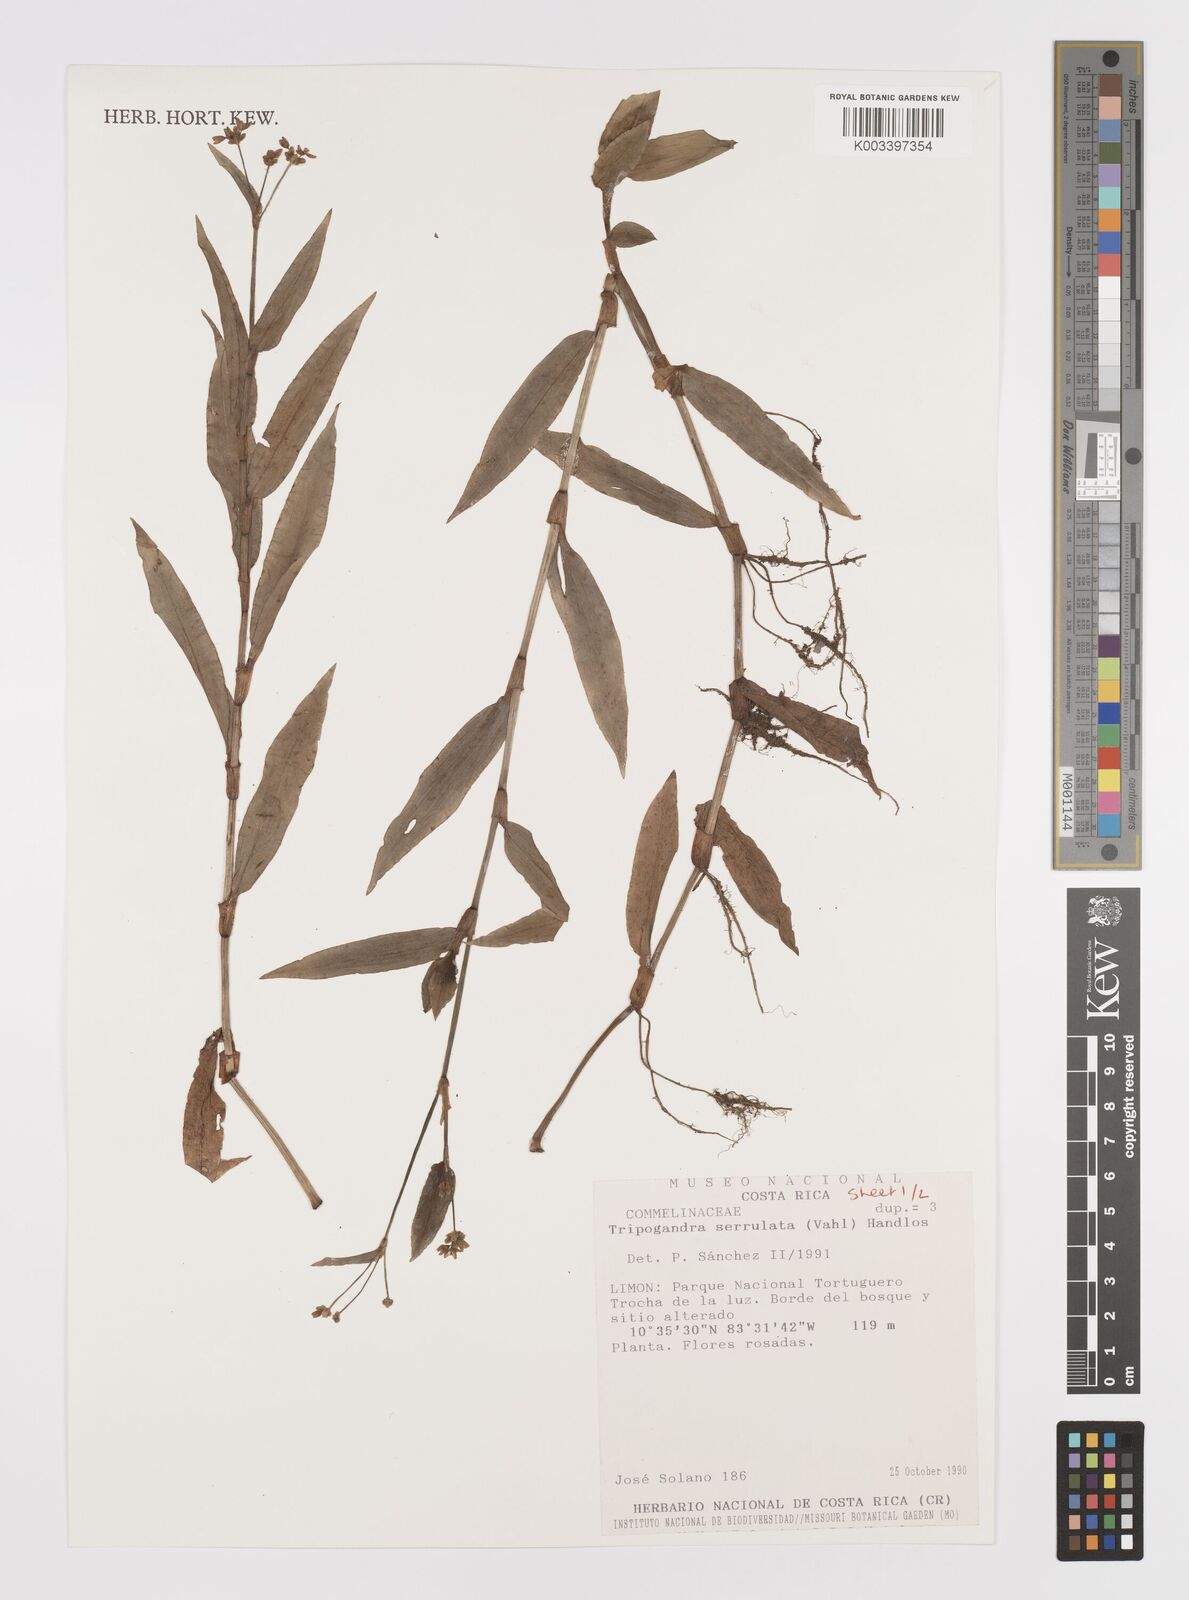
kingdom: Plantae
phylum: Tracheophyta
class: Liliopsida
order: Commelinales
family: Commelinaceae
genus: Callisia
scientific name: Callisia serrulata
